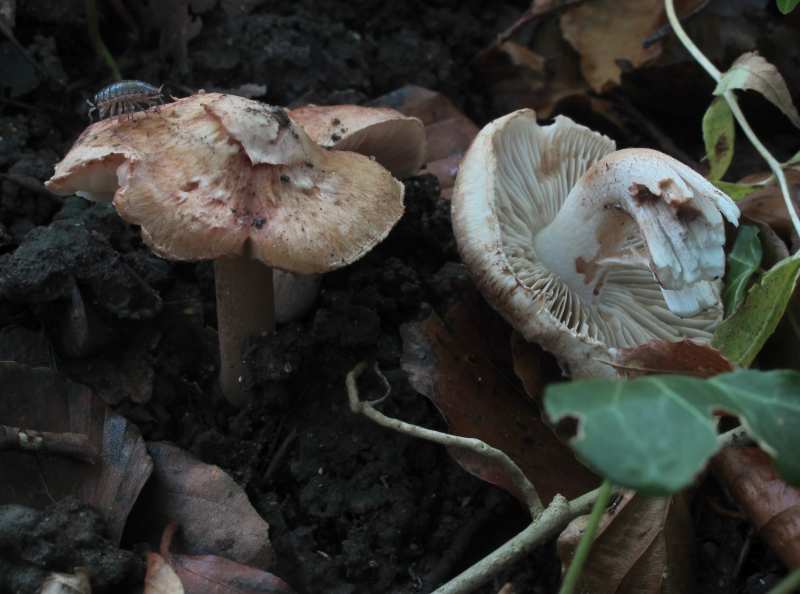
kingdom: Fungi
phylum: Basidiomycota
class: Agaricomycetes
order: Agaricales
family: Inocybaceae
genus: Inocybe
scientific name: Inocybe fraudans
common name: pæreduftende trævlhat
